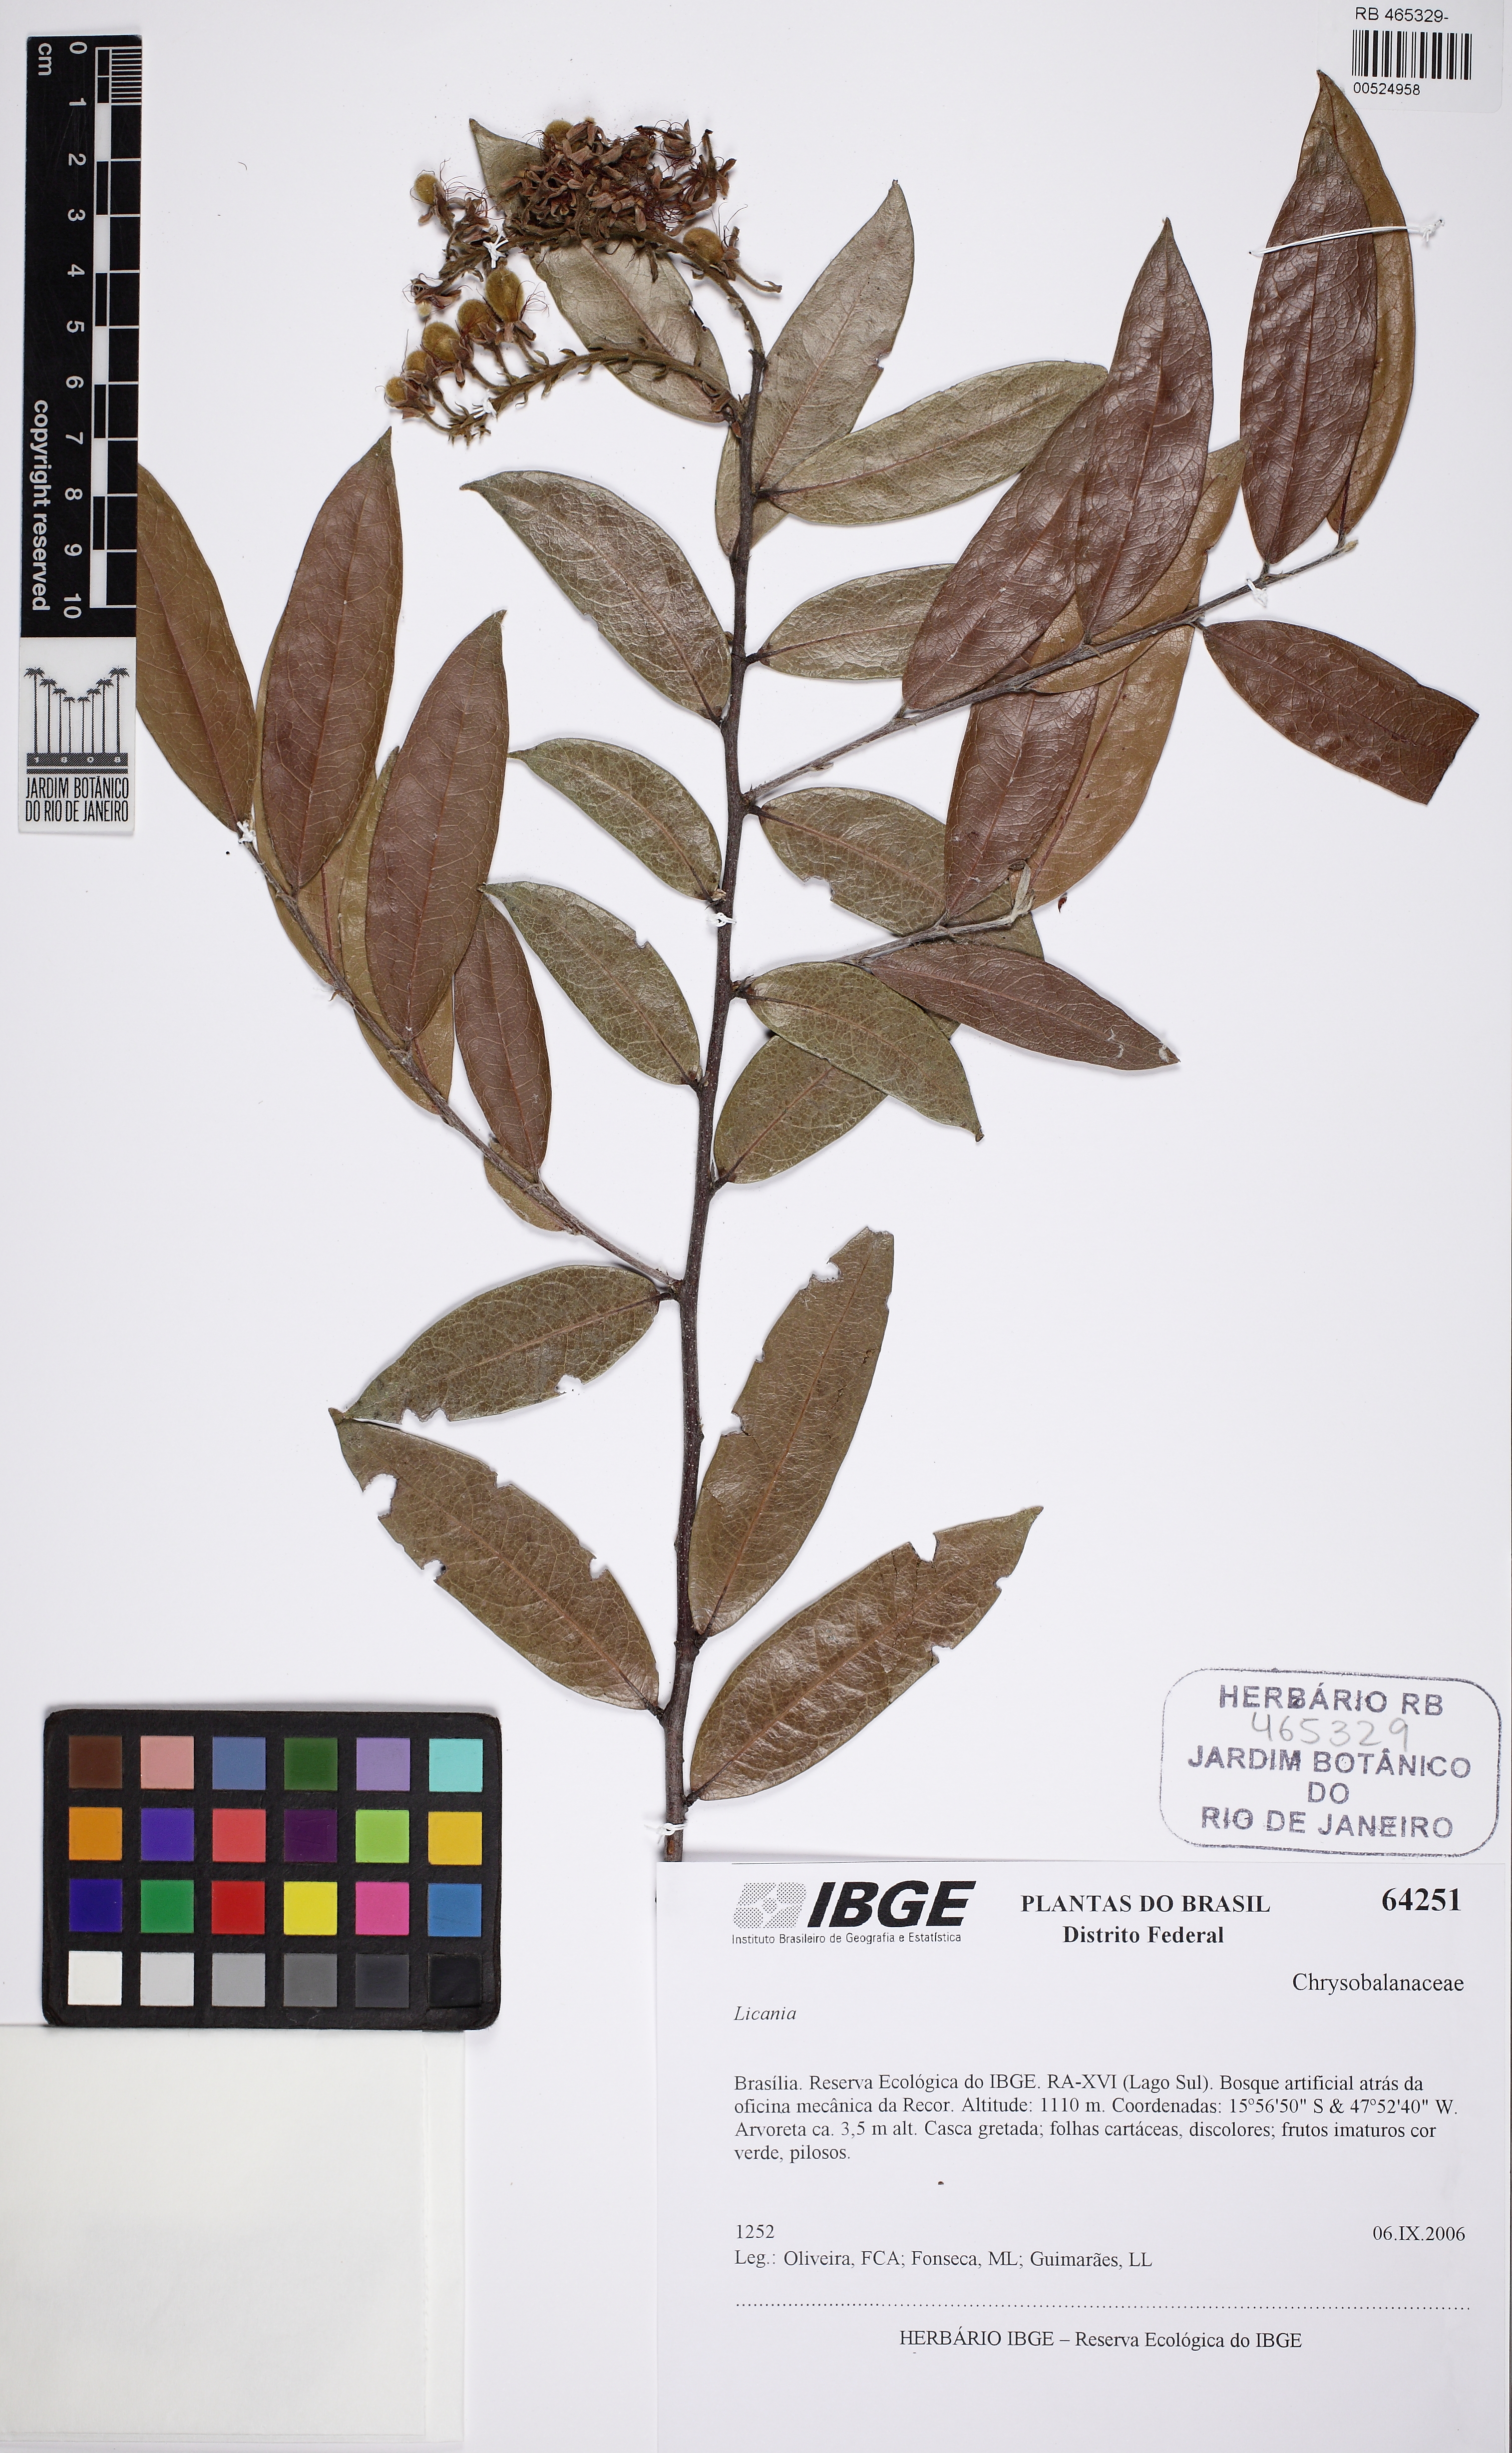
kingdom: Plantae
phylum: Tracheophyta
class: Magnoliopsida
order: Malpighiales
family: Chrysobalanaceae
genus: Hirtella
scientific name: Hirtella martiana
